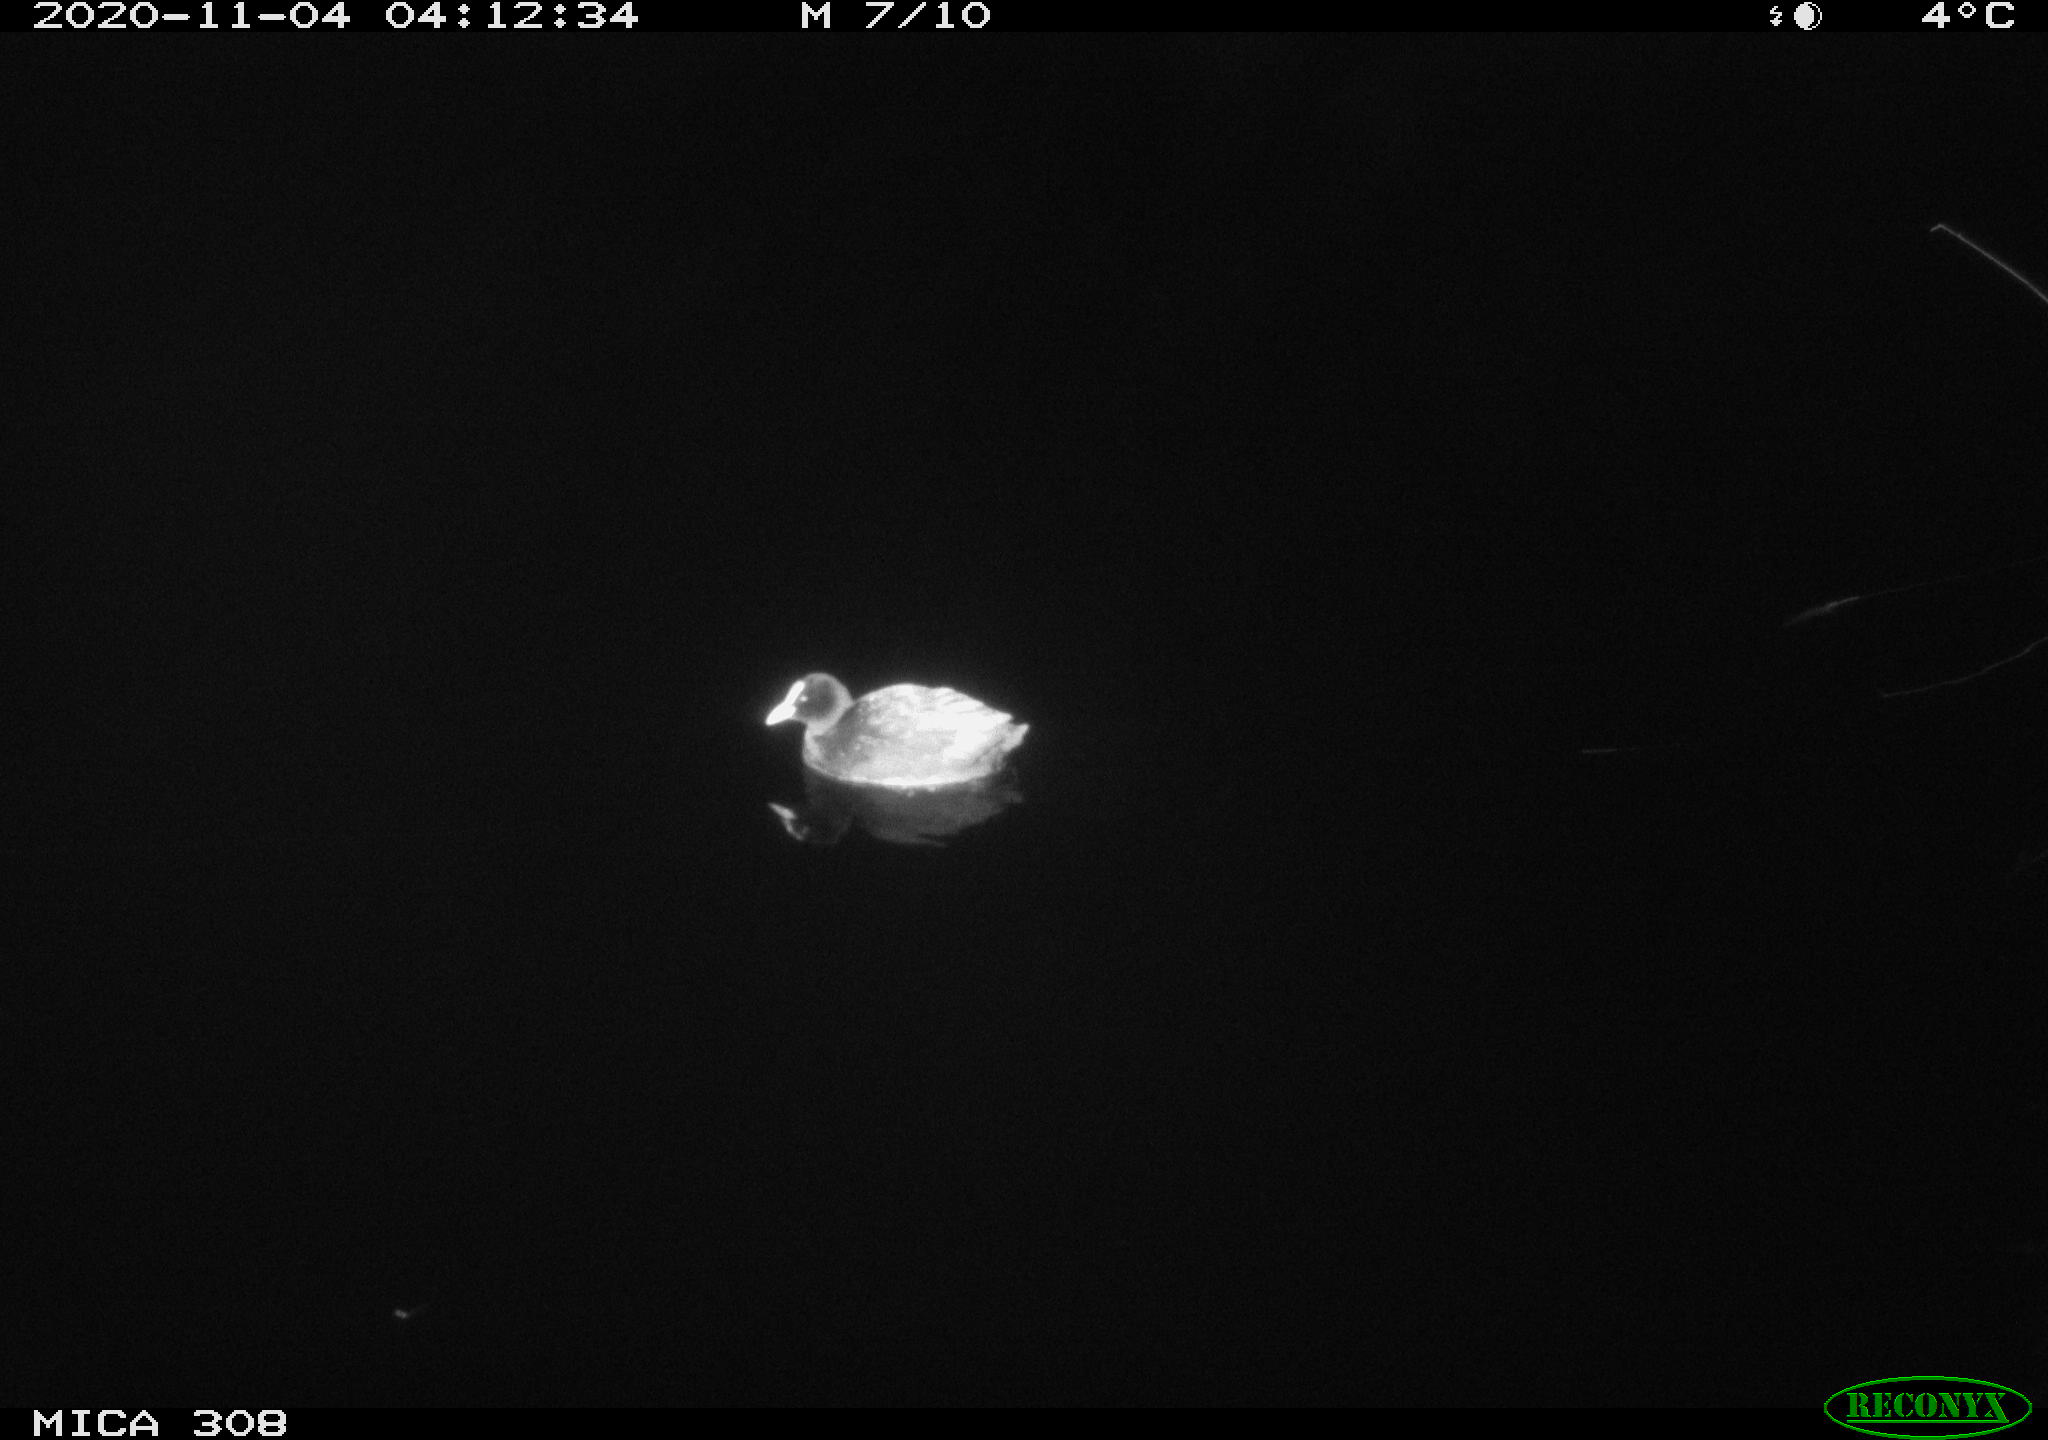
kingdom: Animalia
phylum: Chordata
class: Aves
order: Gruiformes
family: Rallidae
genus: Fulica
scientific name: Fulica atra
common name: Eurasian coot
